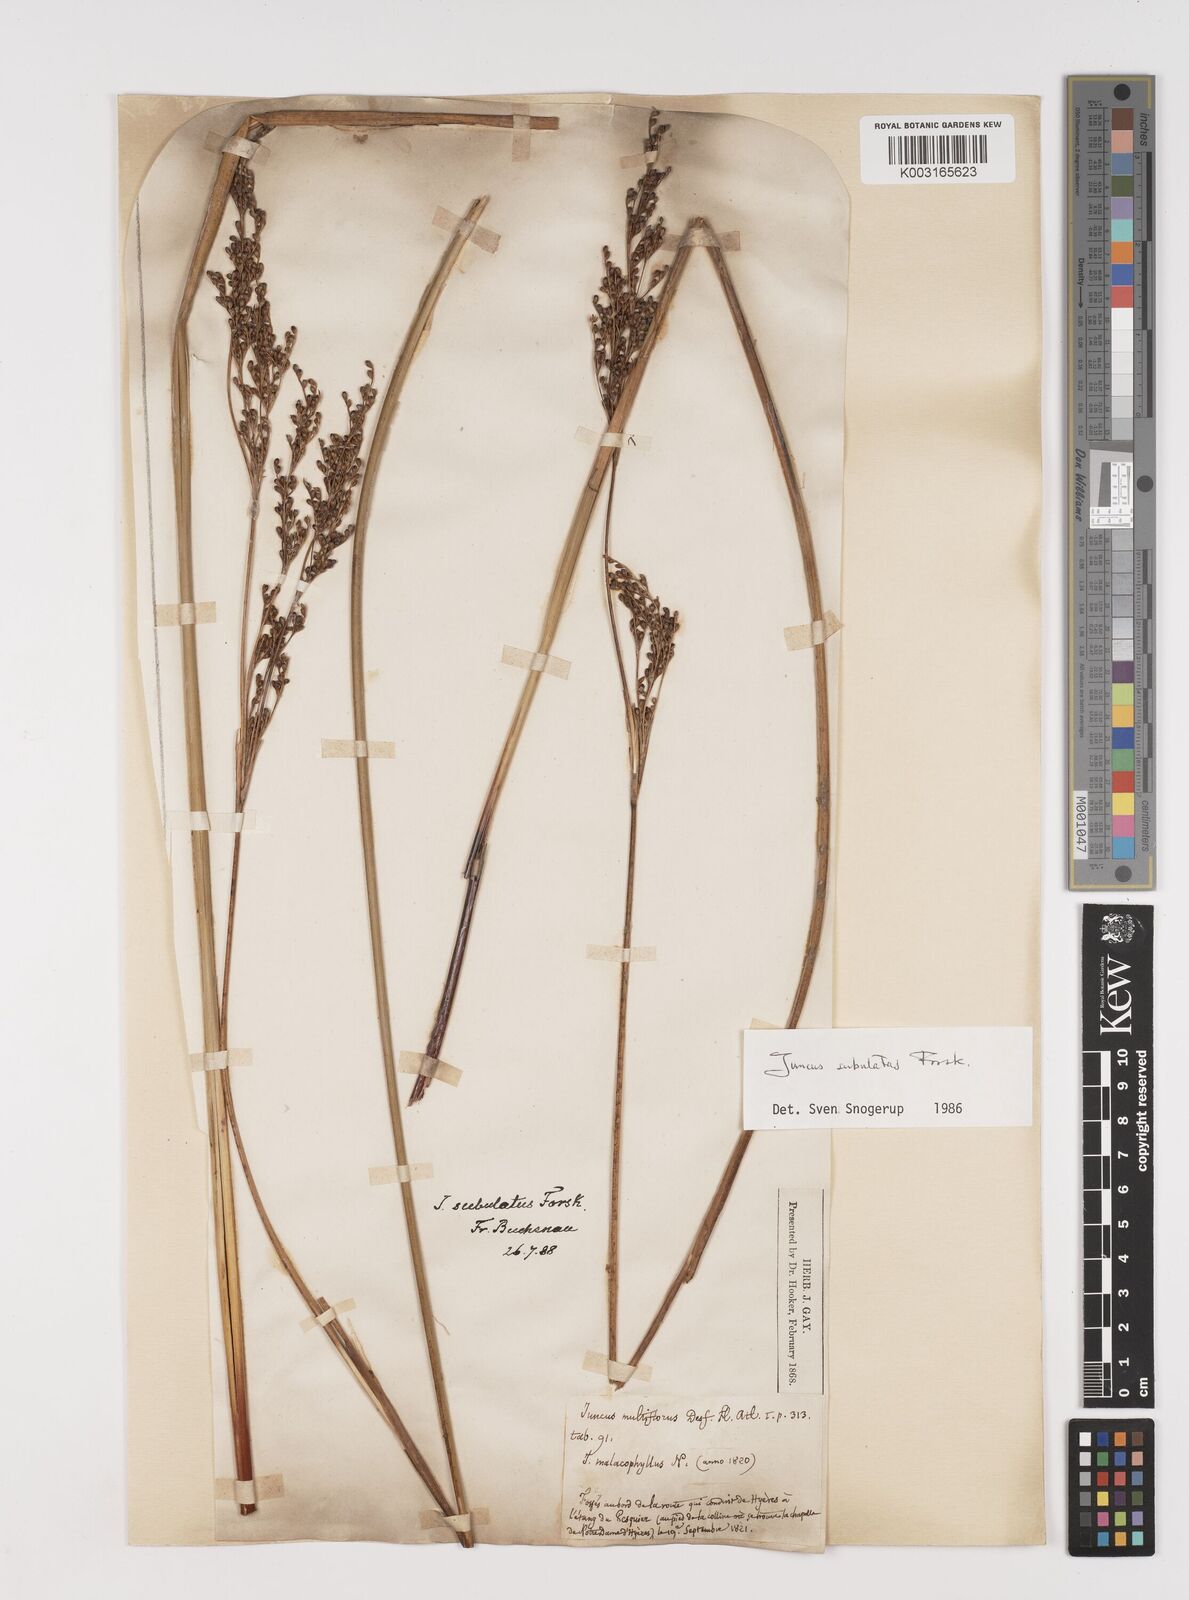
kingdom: Plantae
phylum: Tracheophyta
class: Liliopsida
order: Poales
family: Juncaceae
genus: Juncus
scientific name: Juncus subulatus
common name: Somerset rush
